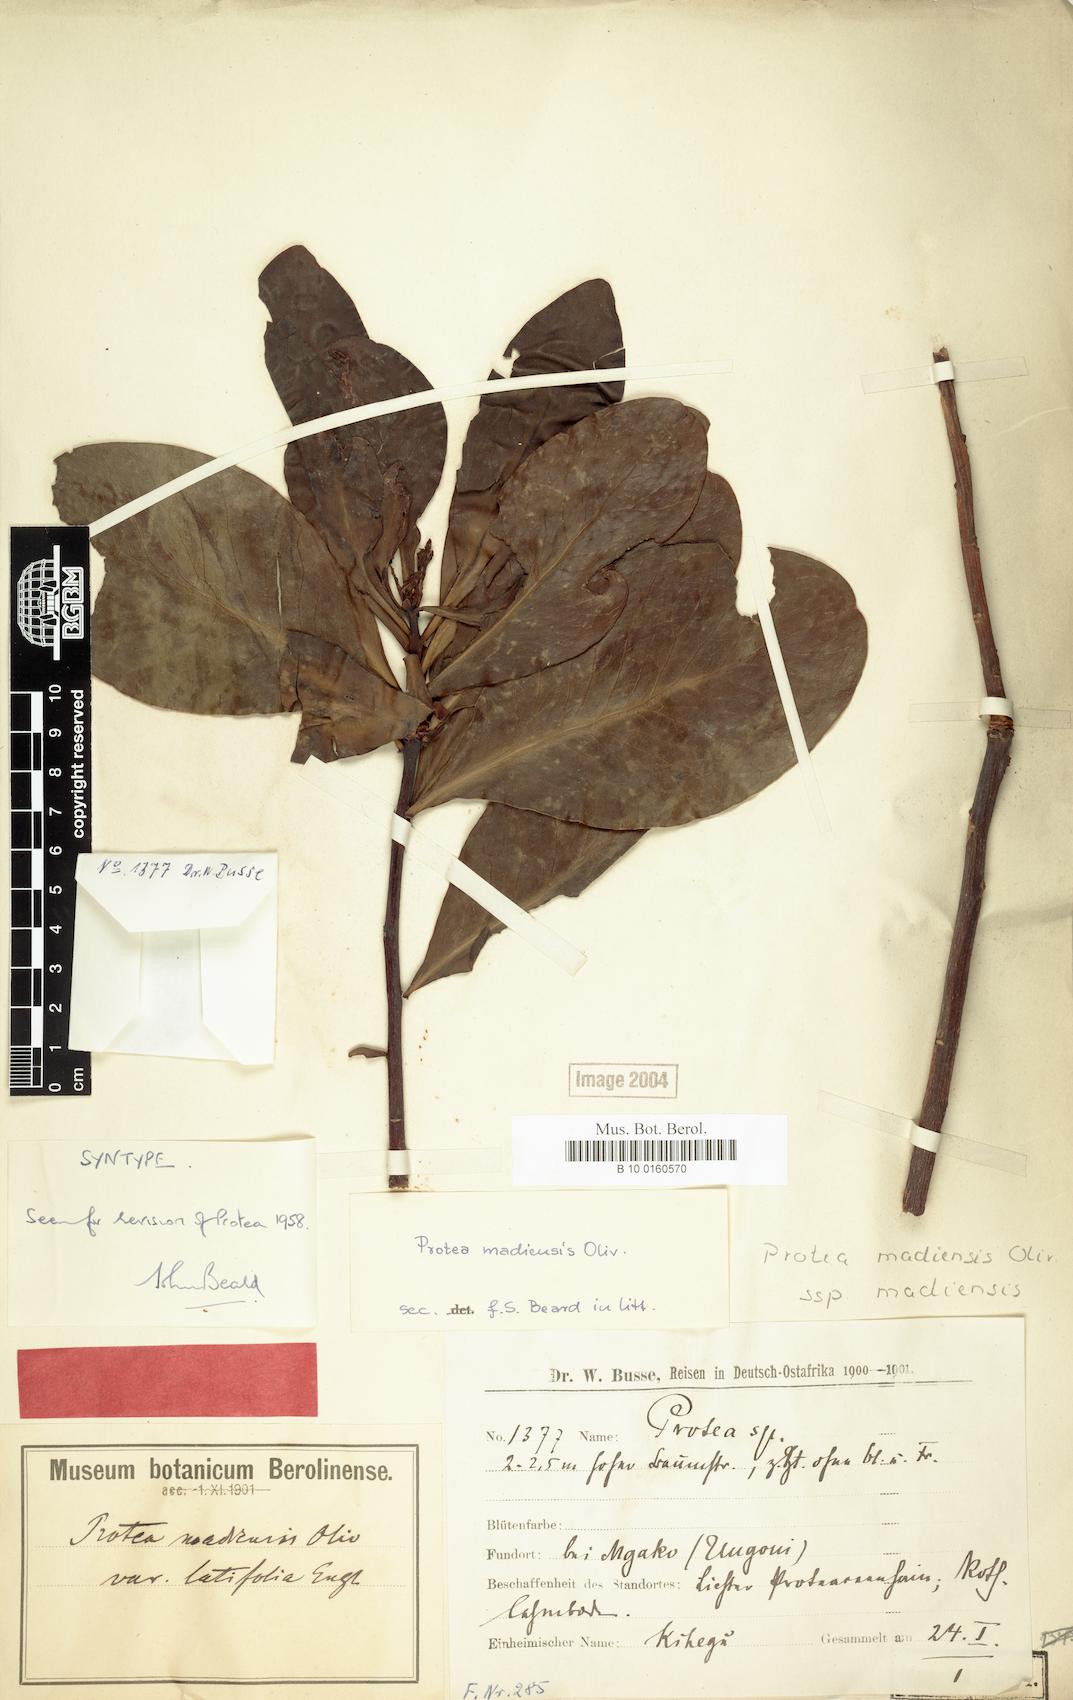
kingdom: Plantae
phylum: Tracheophyta
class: Magnoliopsida
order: Proteales
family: Proteaceae
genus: Protea
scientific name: Protea madiensis
